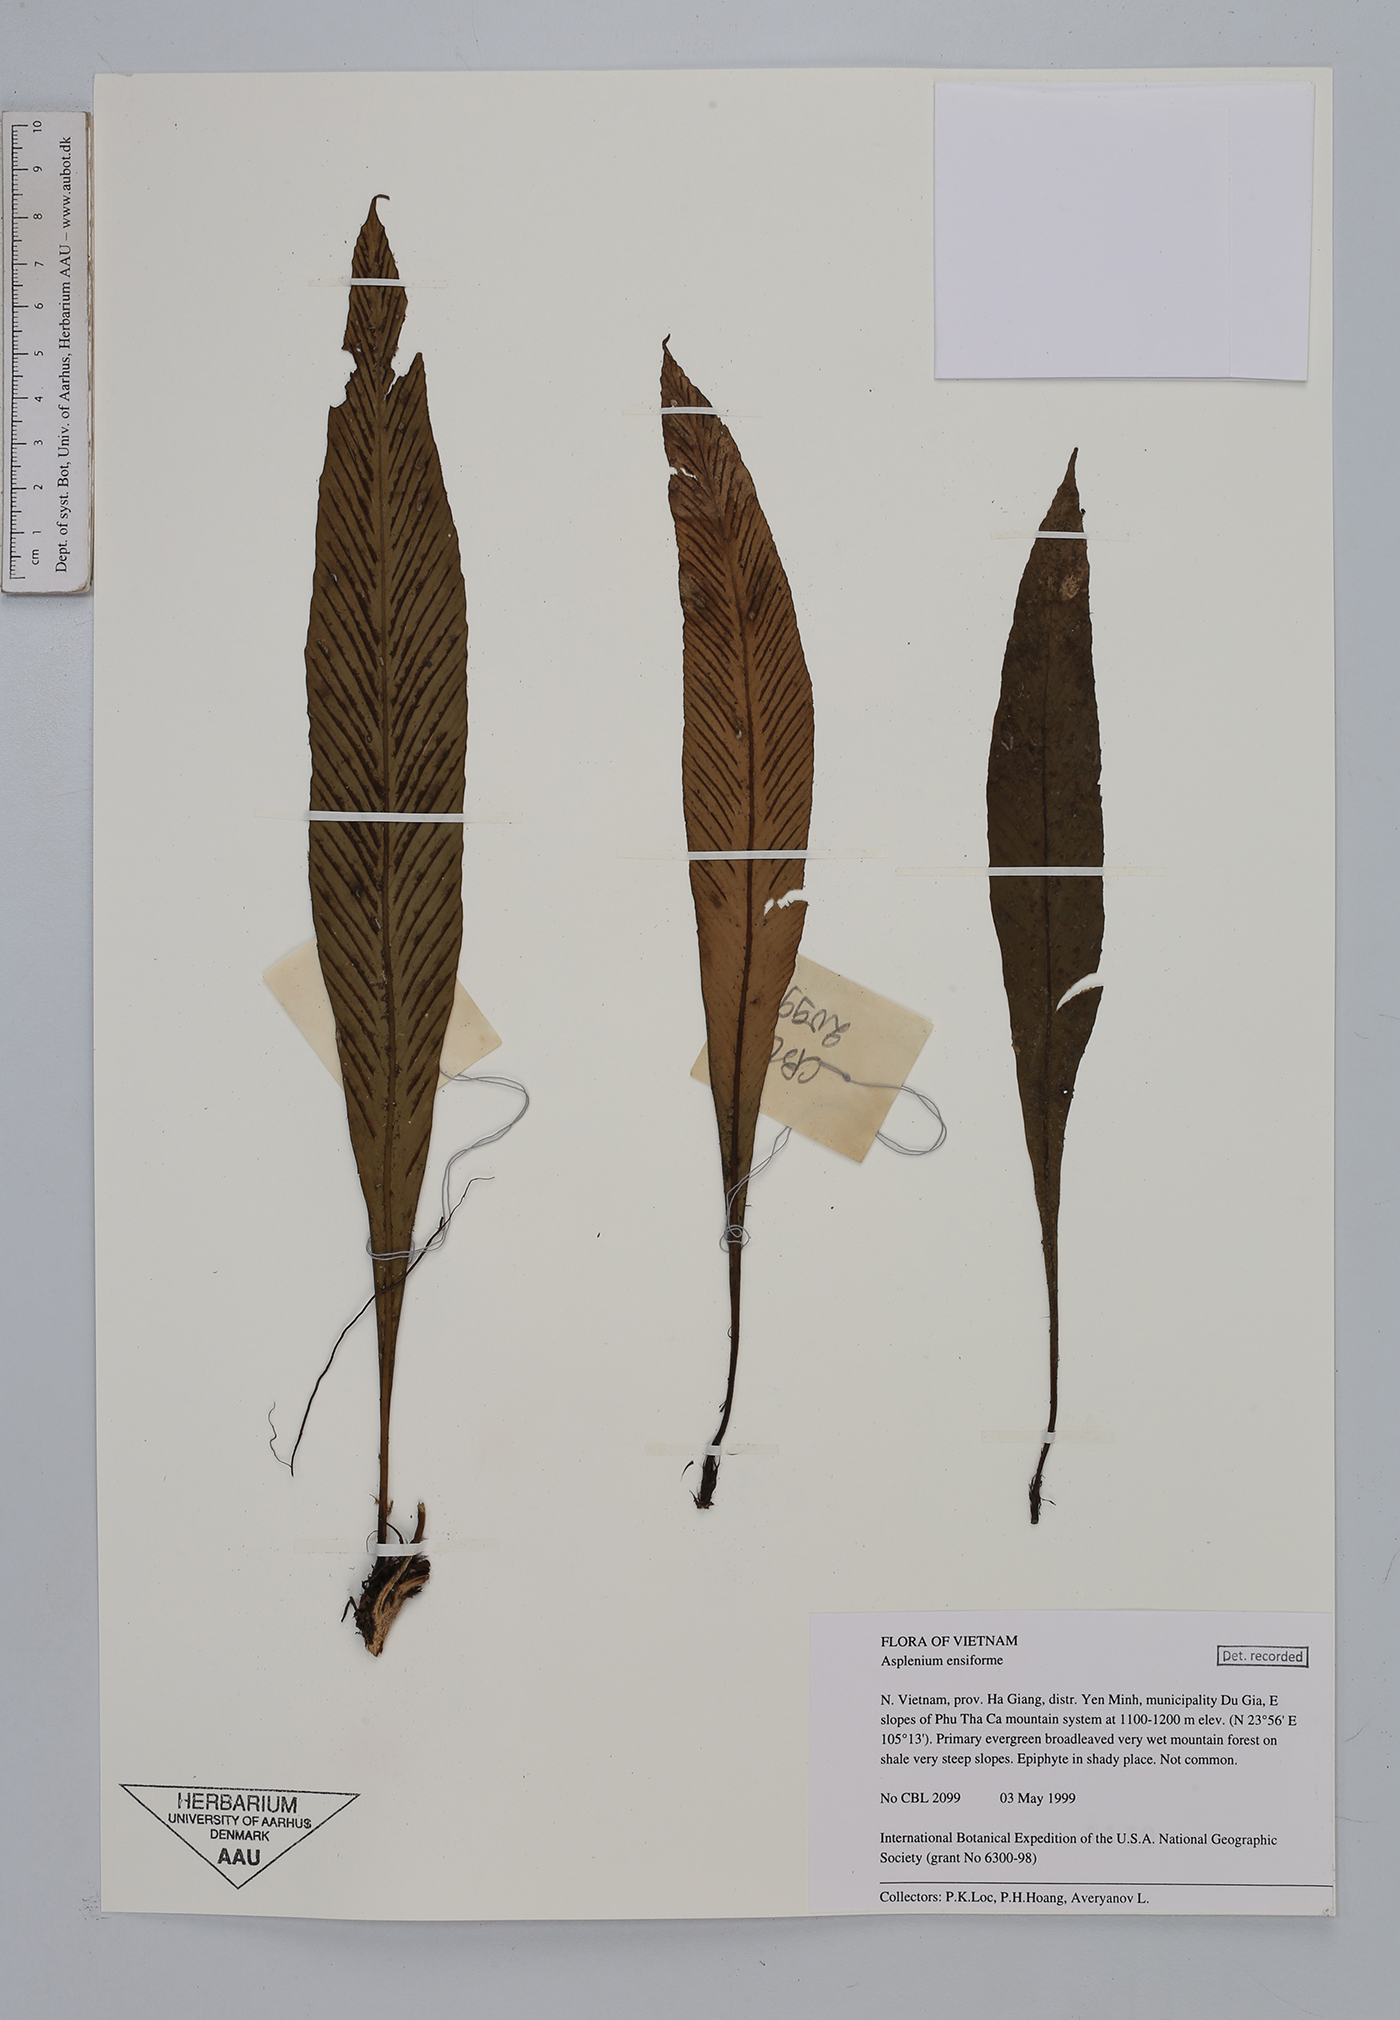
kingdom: Plantae
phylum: Tracheophyta
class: Polypodiopsida
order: Polypodiales
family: Aspleniaceae
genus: Asplenium
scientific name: Asplenium ensiforme
